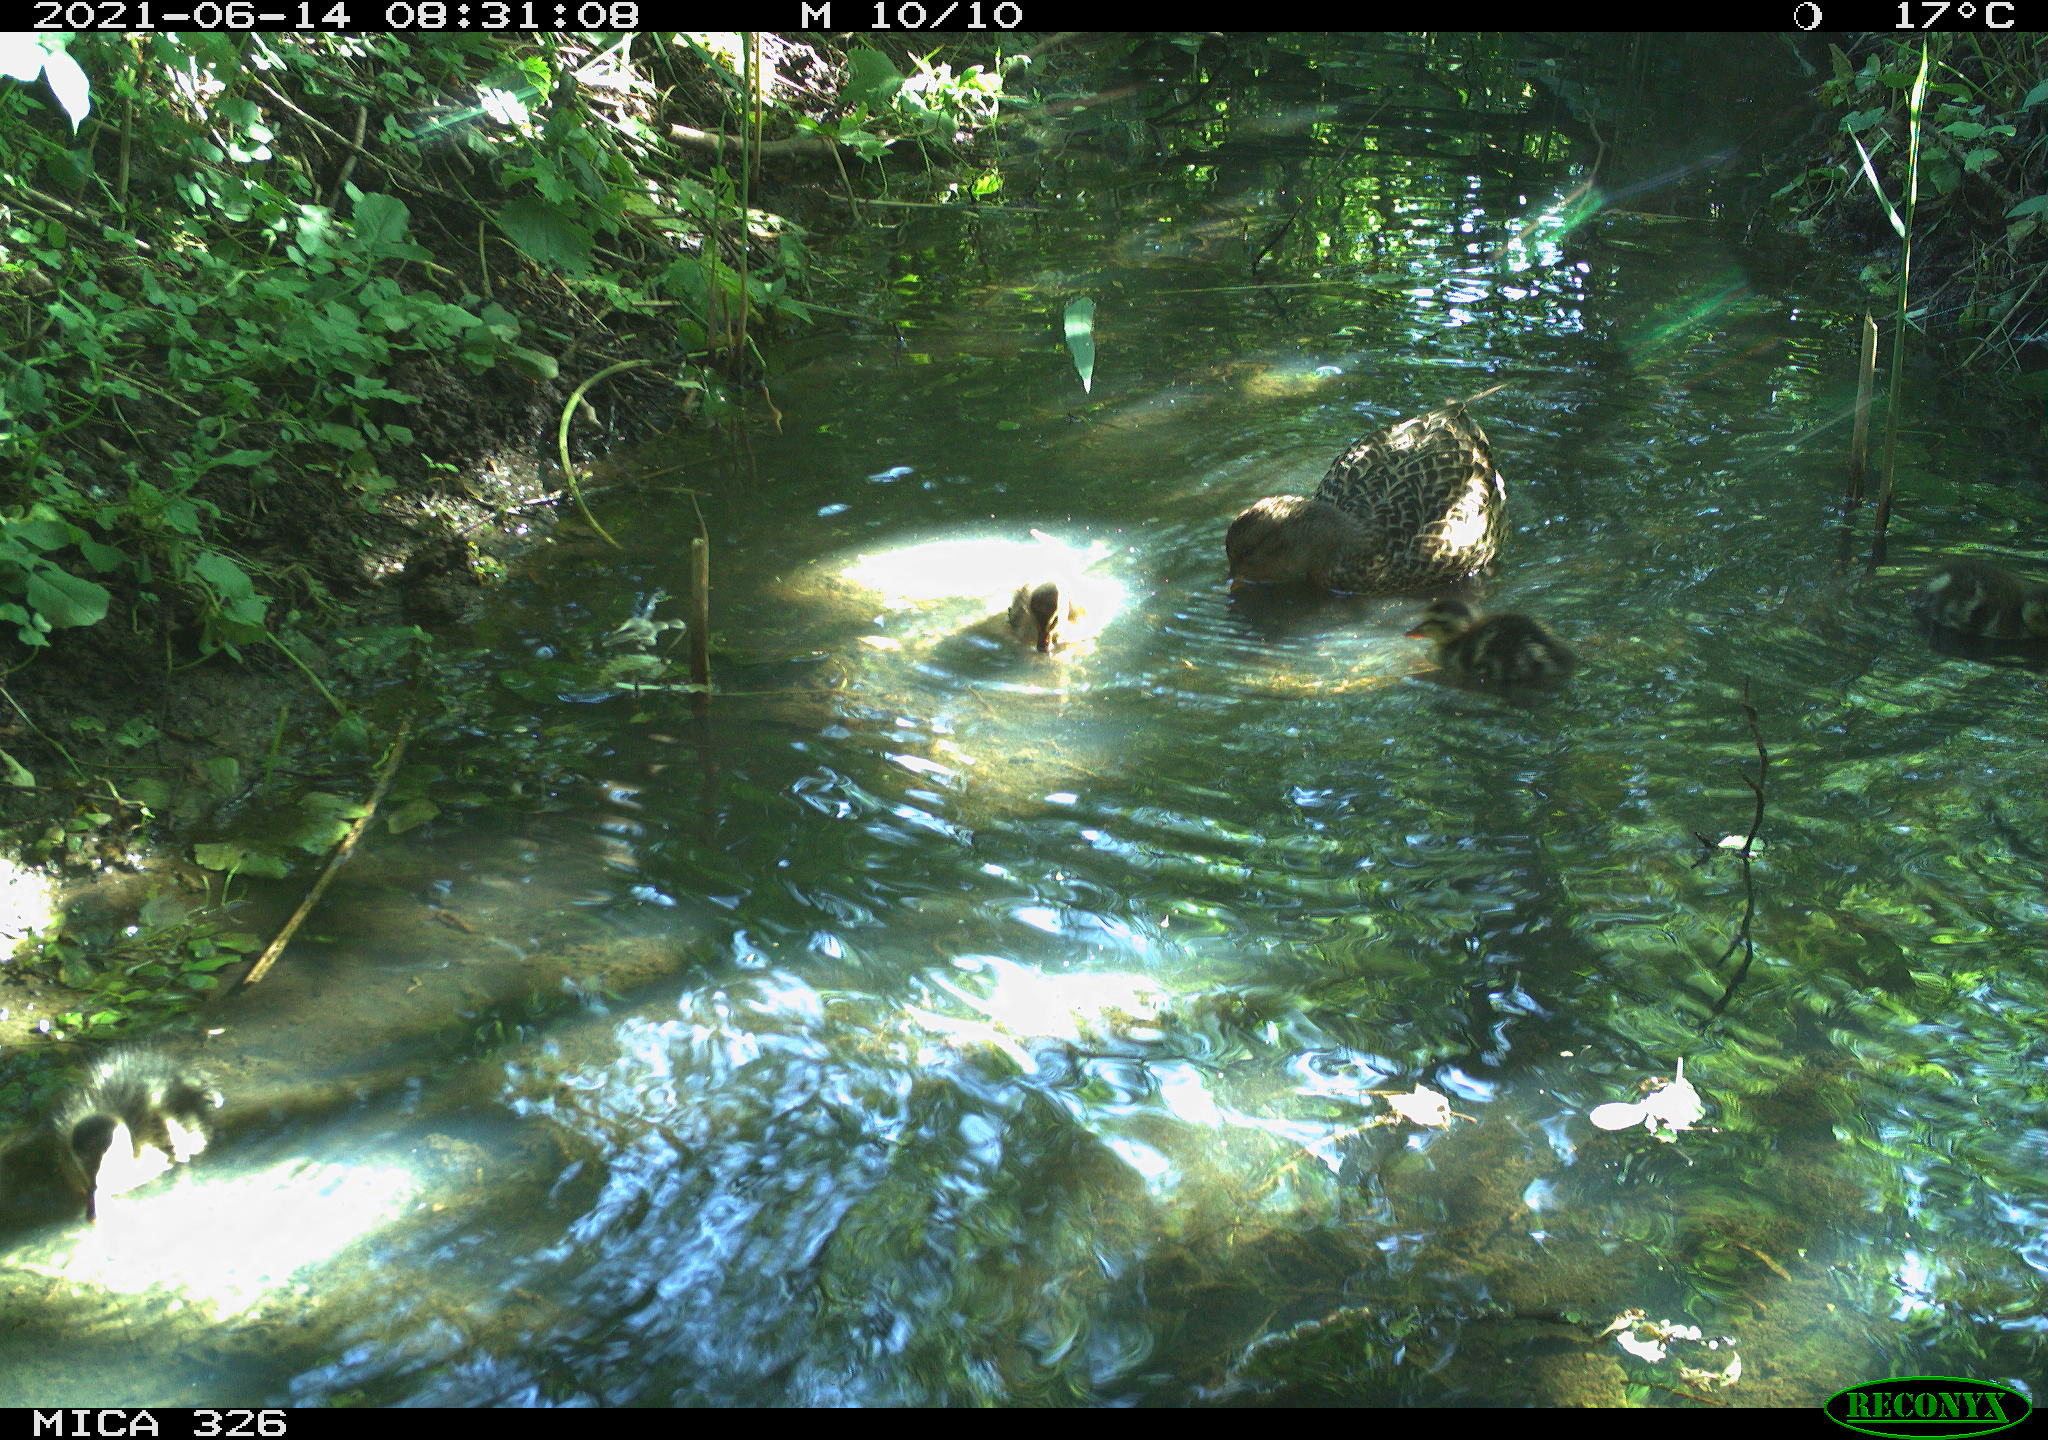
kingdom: Animalia
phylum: Chordata
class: Aves
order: Anseriformes
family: Anatidae
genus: Anas
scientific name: Anas platyrhynchos
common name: Mallard
